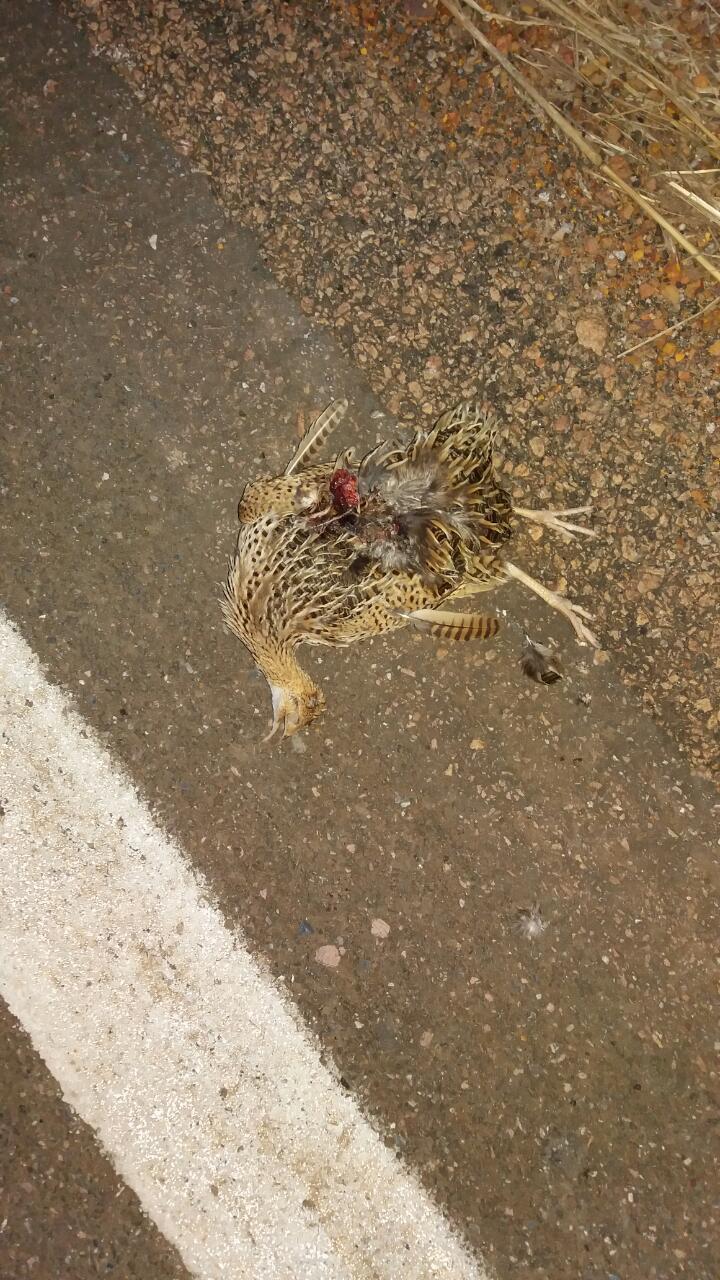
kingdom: Animalia
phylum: Chordata
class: Aves
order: Tinamiformes
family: Tinamidae
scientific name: Tinamidae
